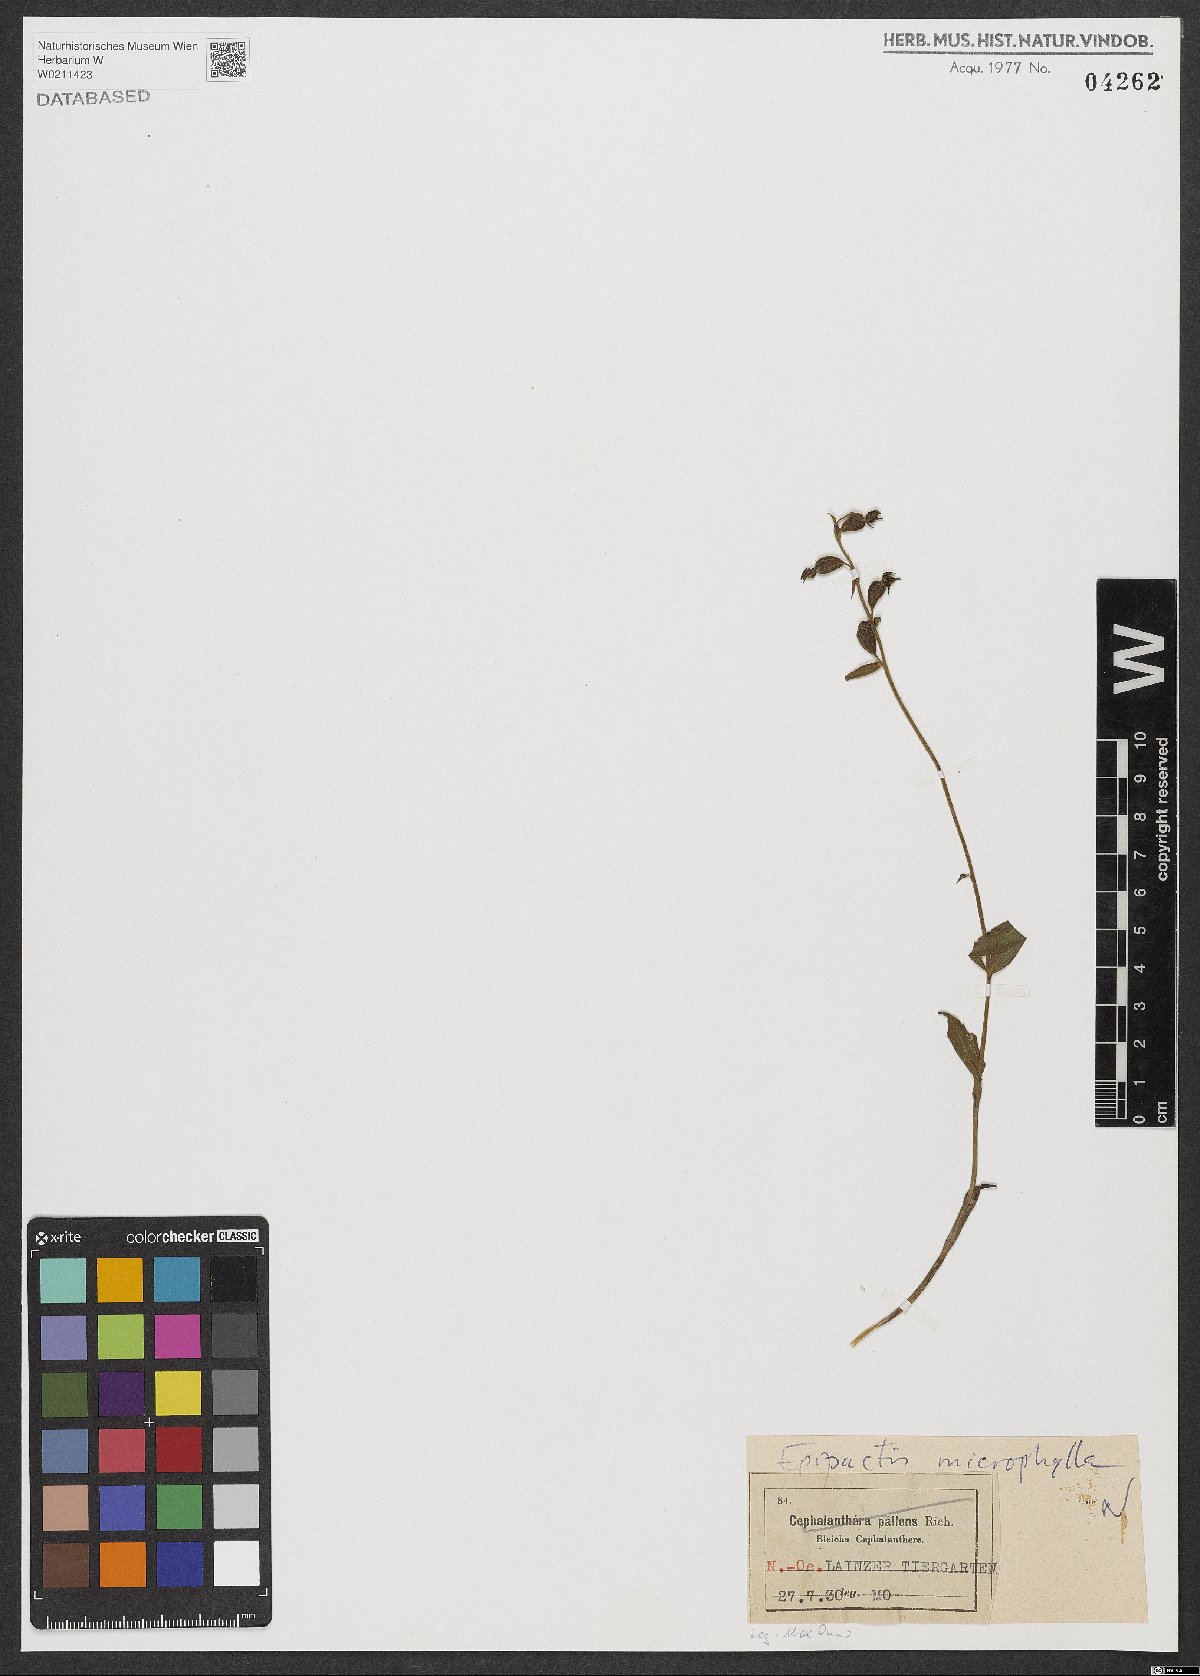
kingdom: Plantae
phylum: Tracheophyta
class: Liliopsida
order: Asparagales
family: Orchidaceae
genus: Epipactis
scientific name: Epipactis microphylla
